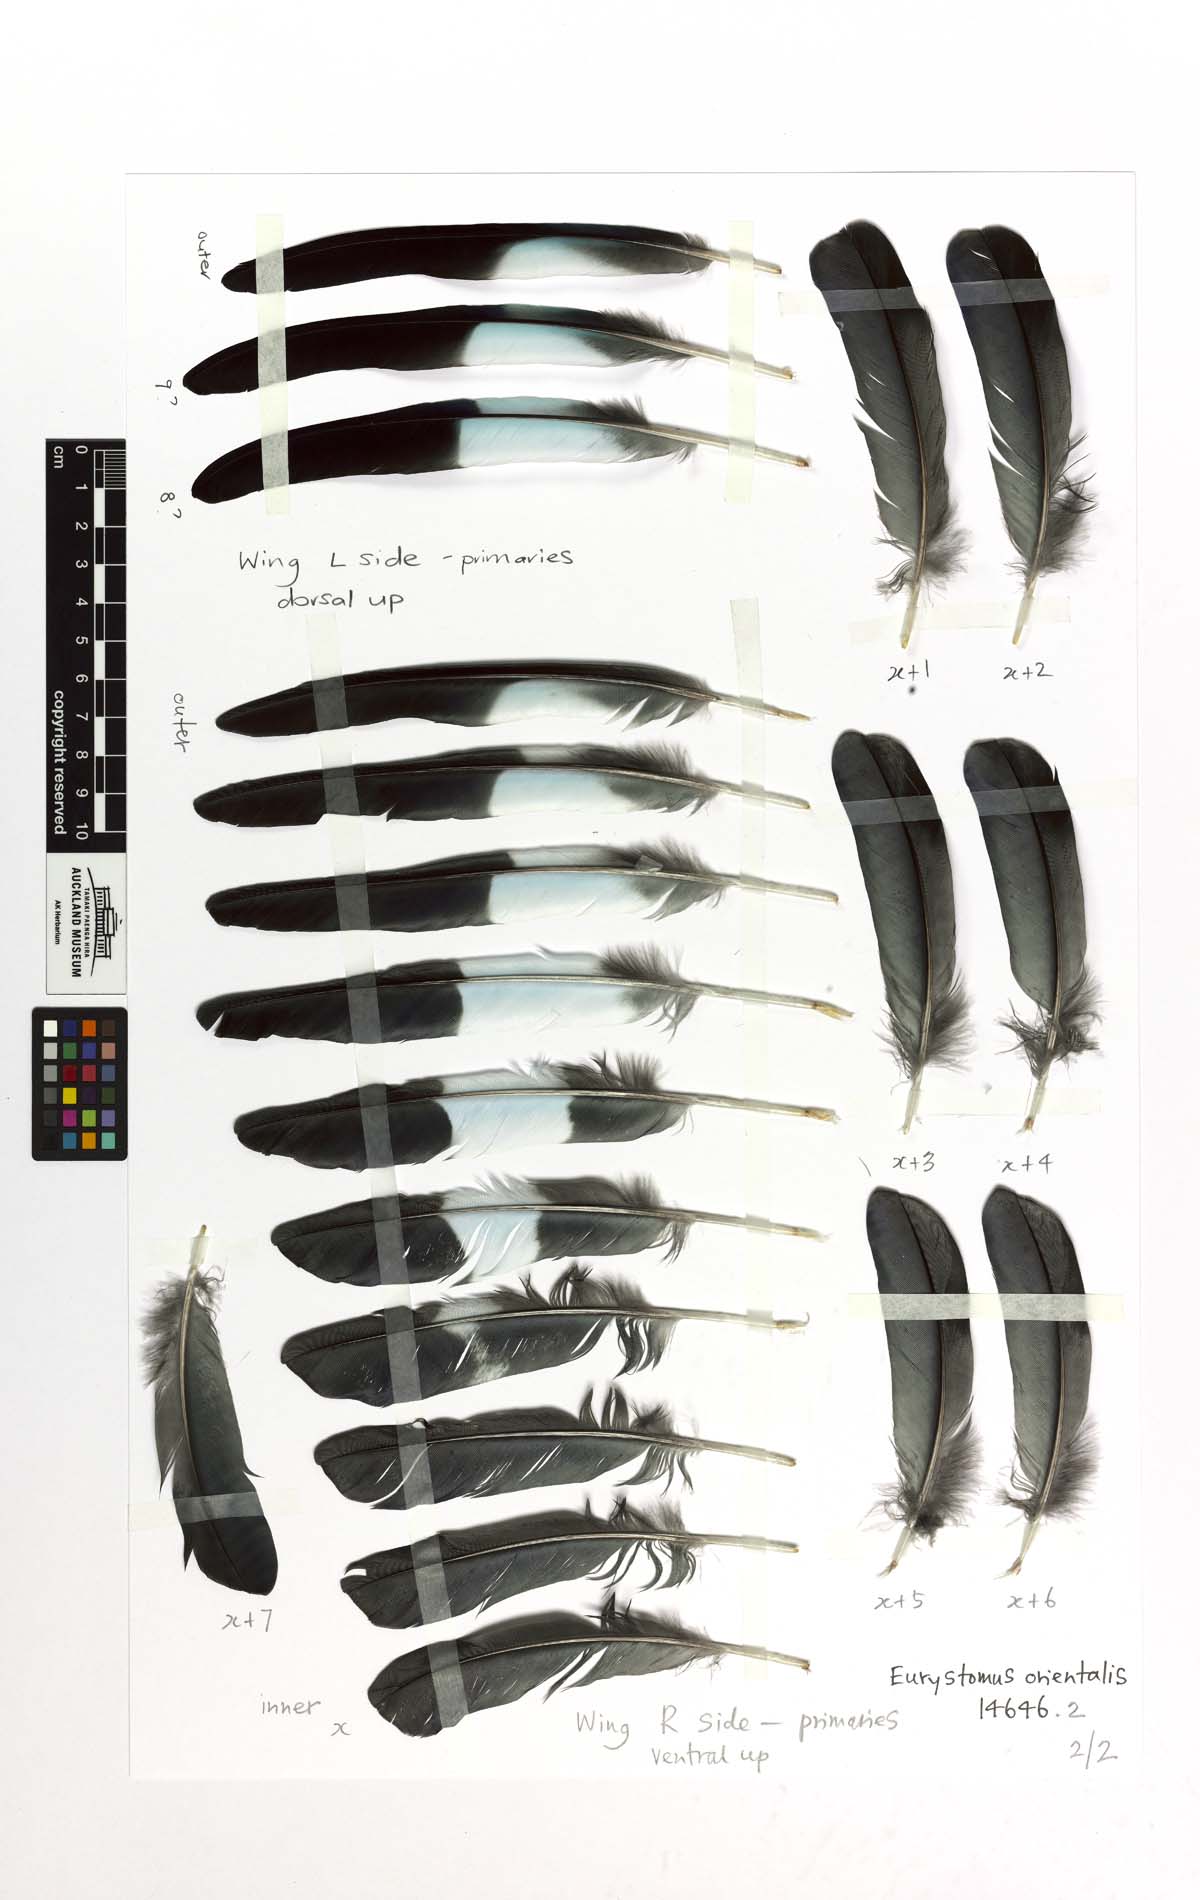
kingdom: Animalia
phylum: Chordata
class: Aves
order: Coraciiformes
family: Coraciidae
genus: Eurystomus
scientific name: Eurystomus orientalis
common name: Oriental dollarbird
